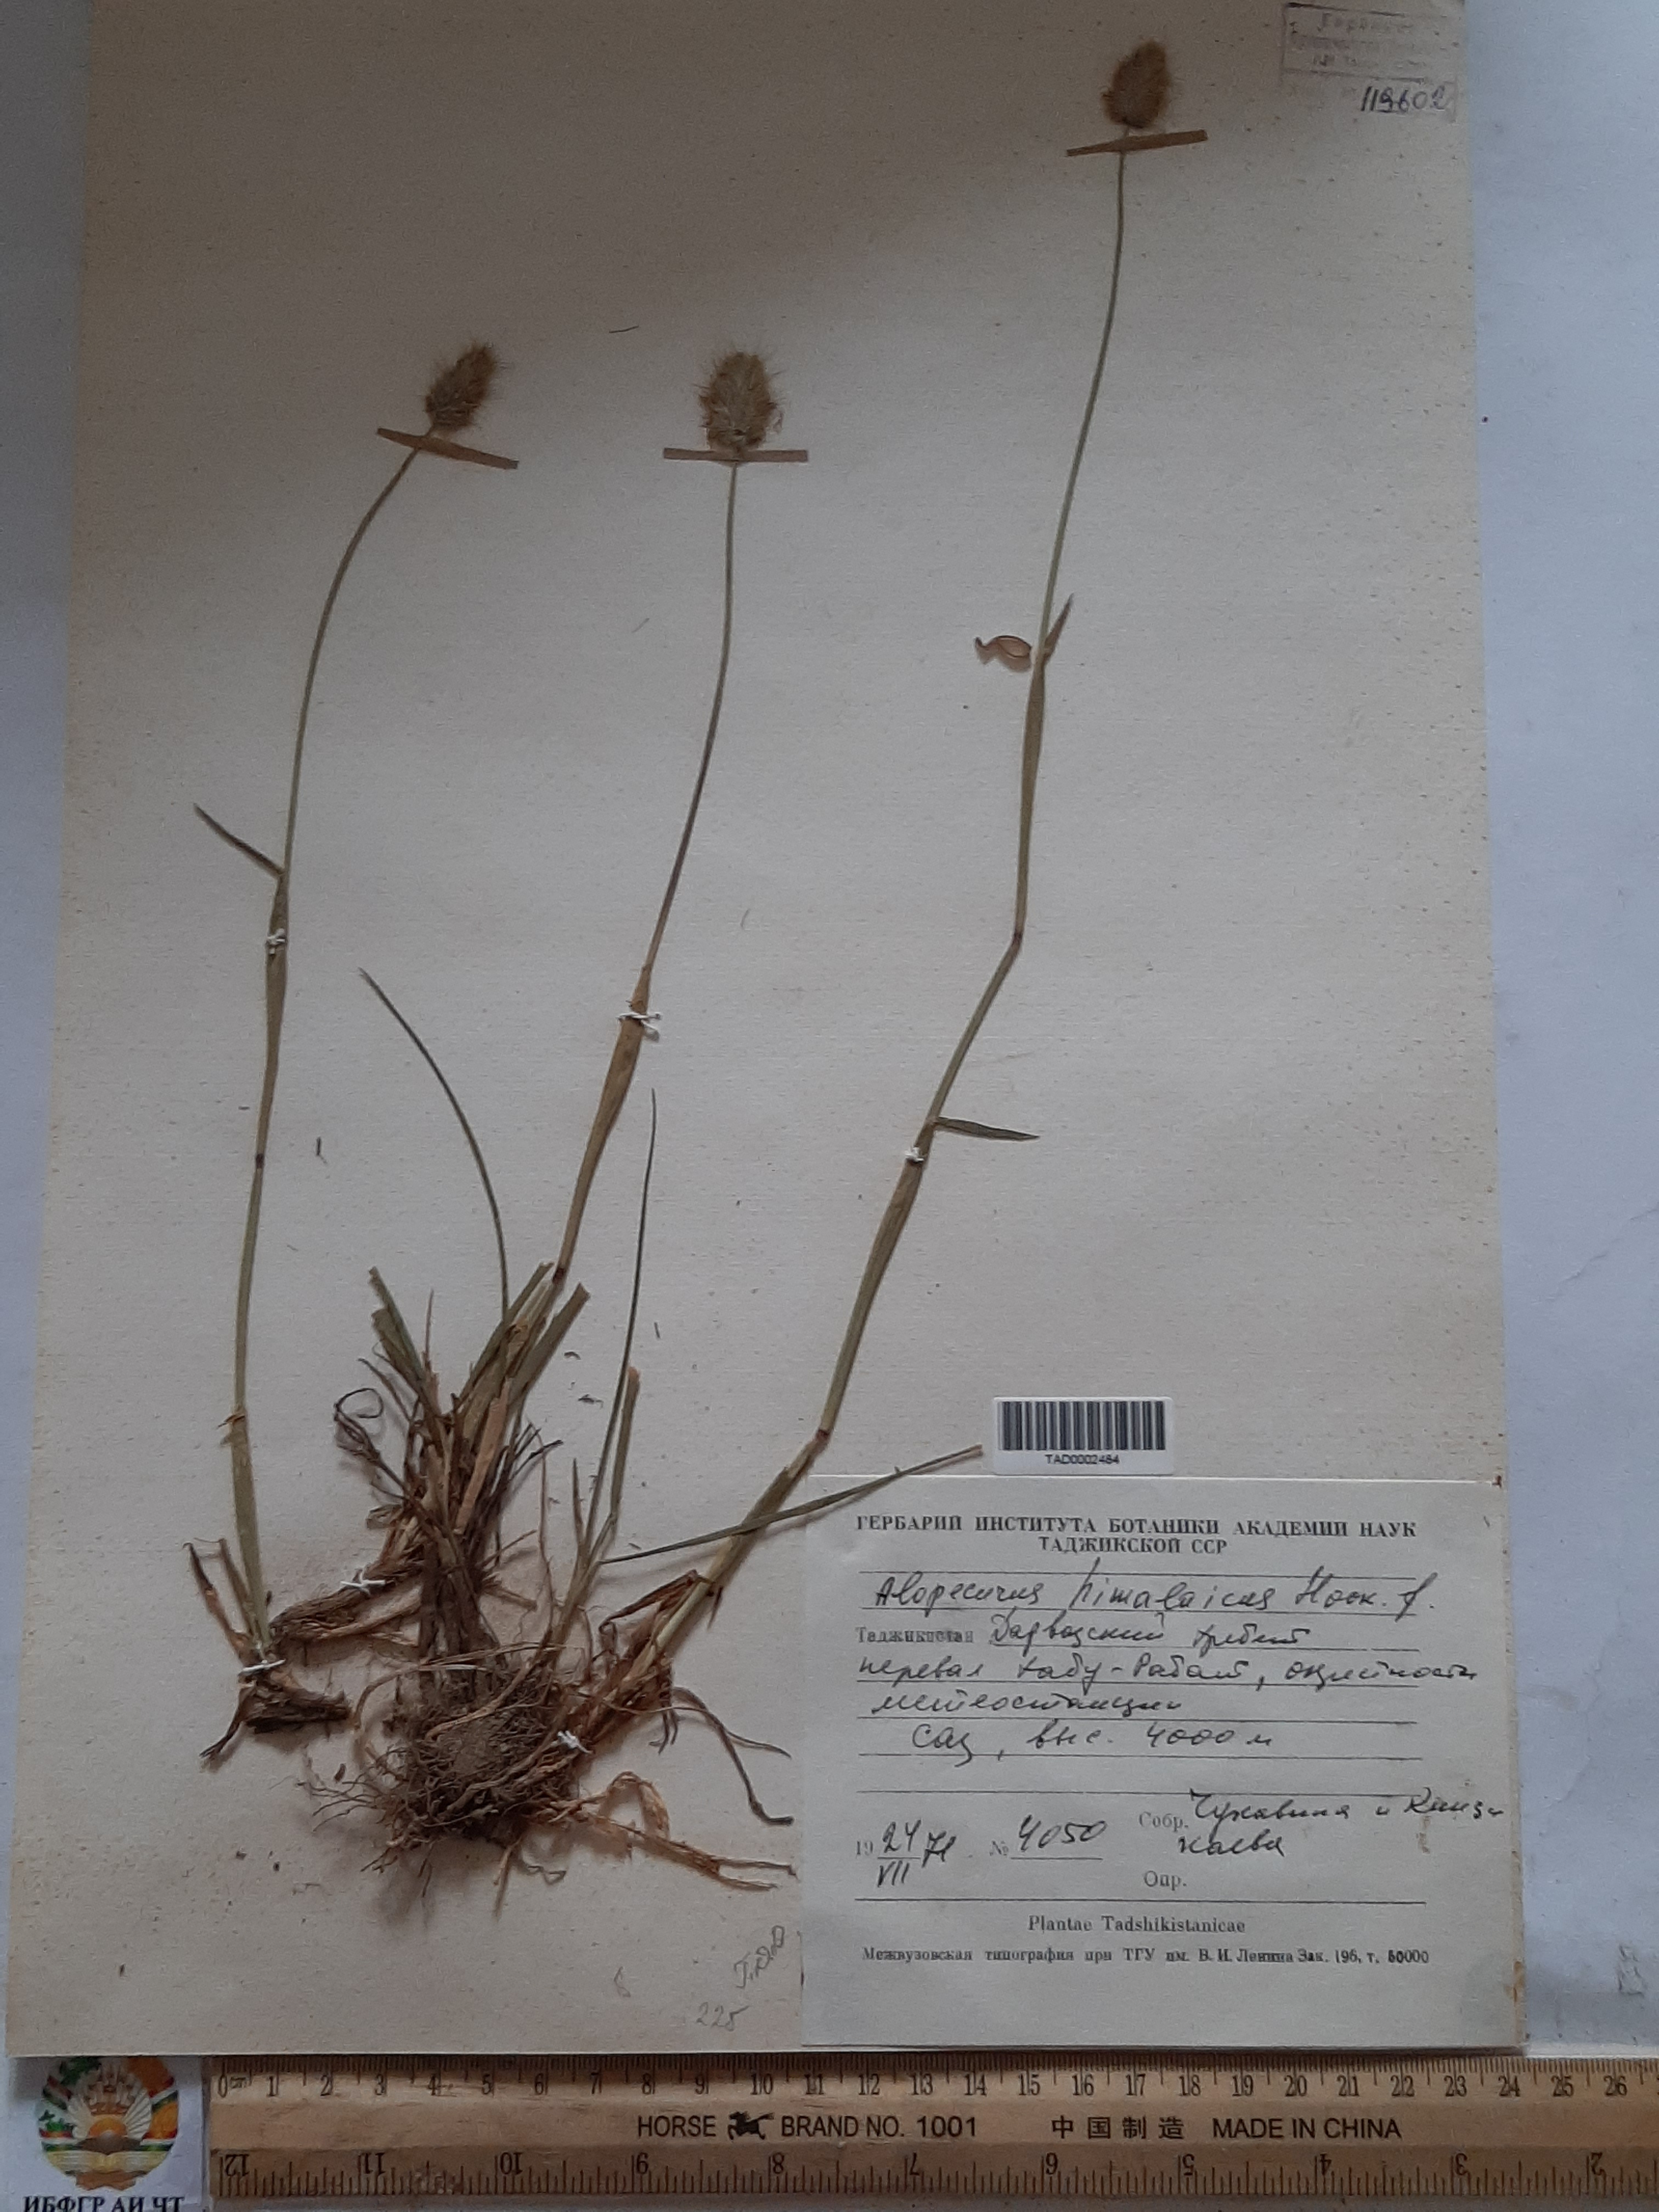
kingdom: Plantae
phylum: Tracheophyta
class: Liliopsida
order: Poales
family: Poaceae
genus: Alopecurus
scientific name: Alopecurus himalaicus
